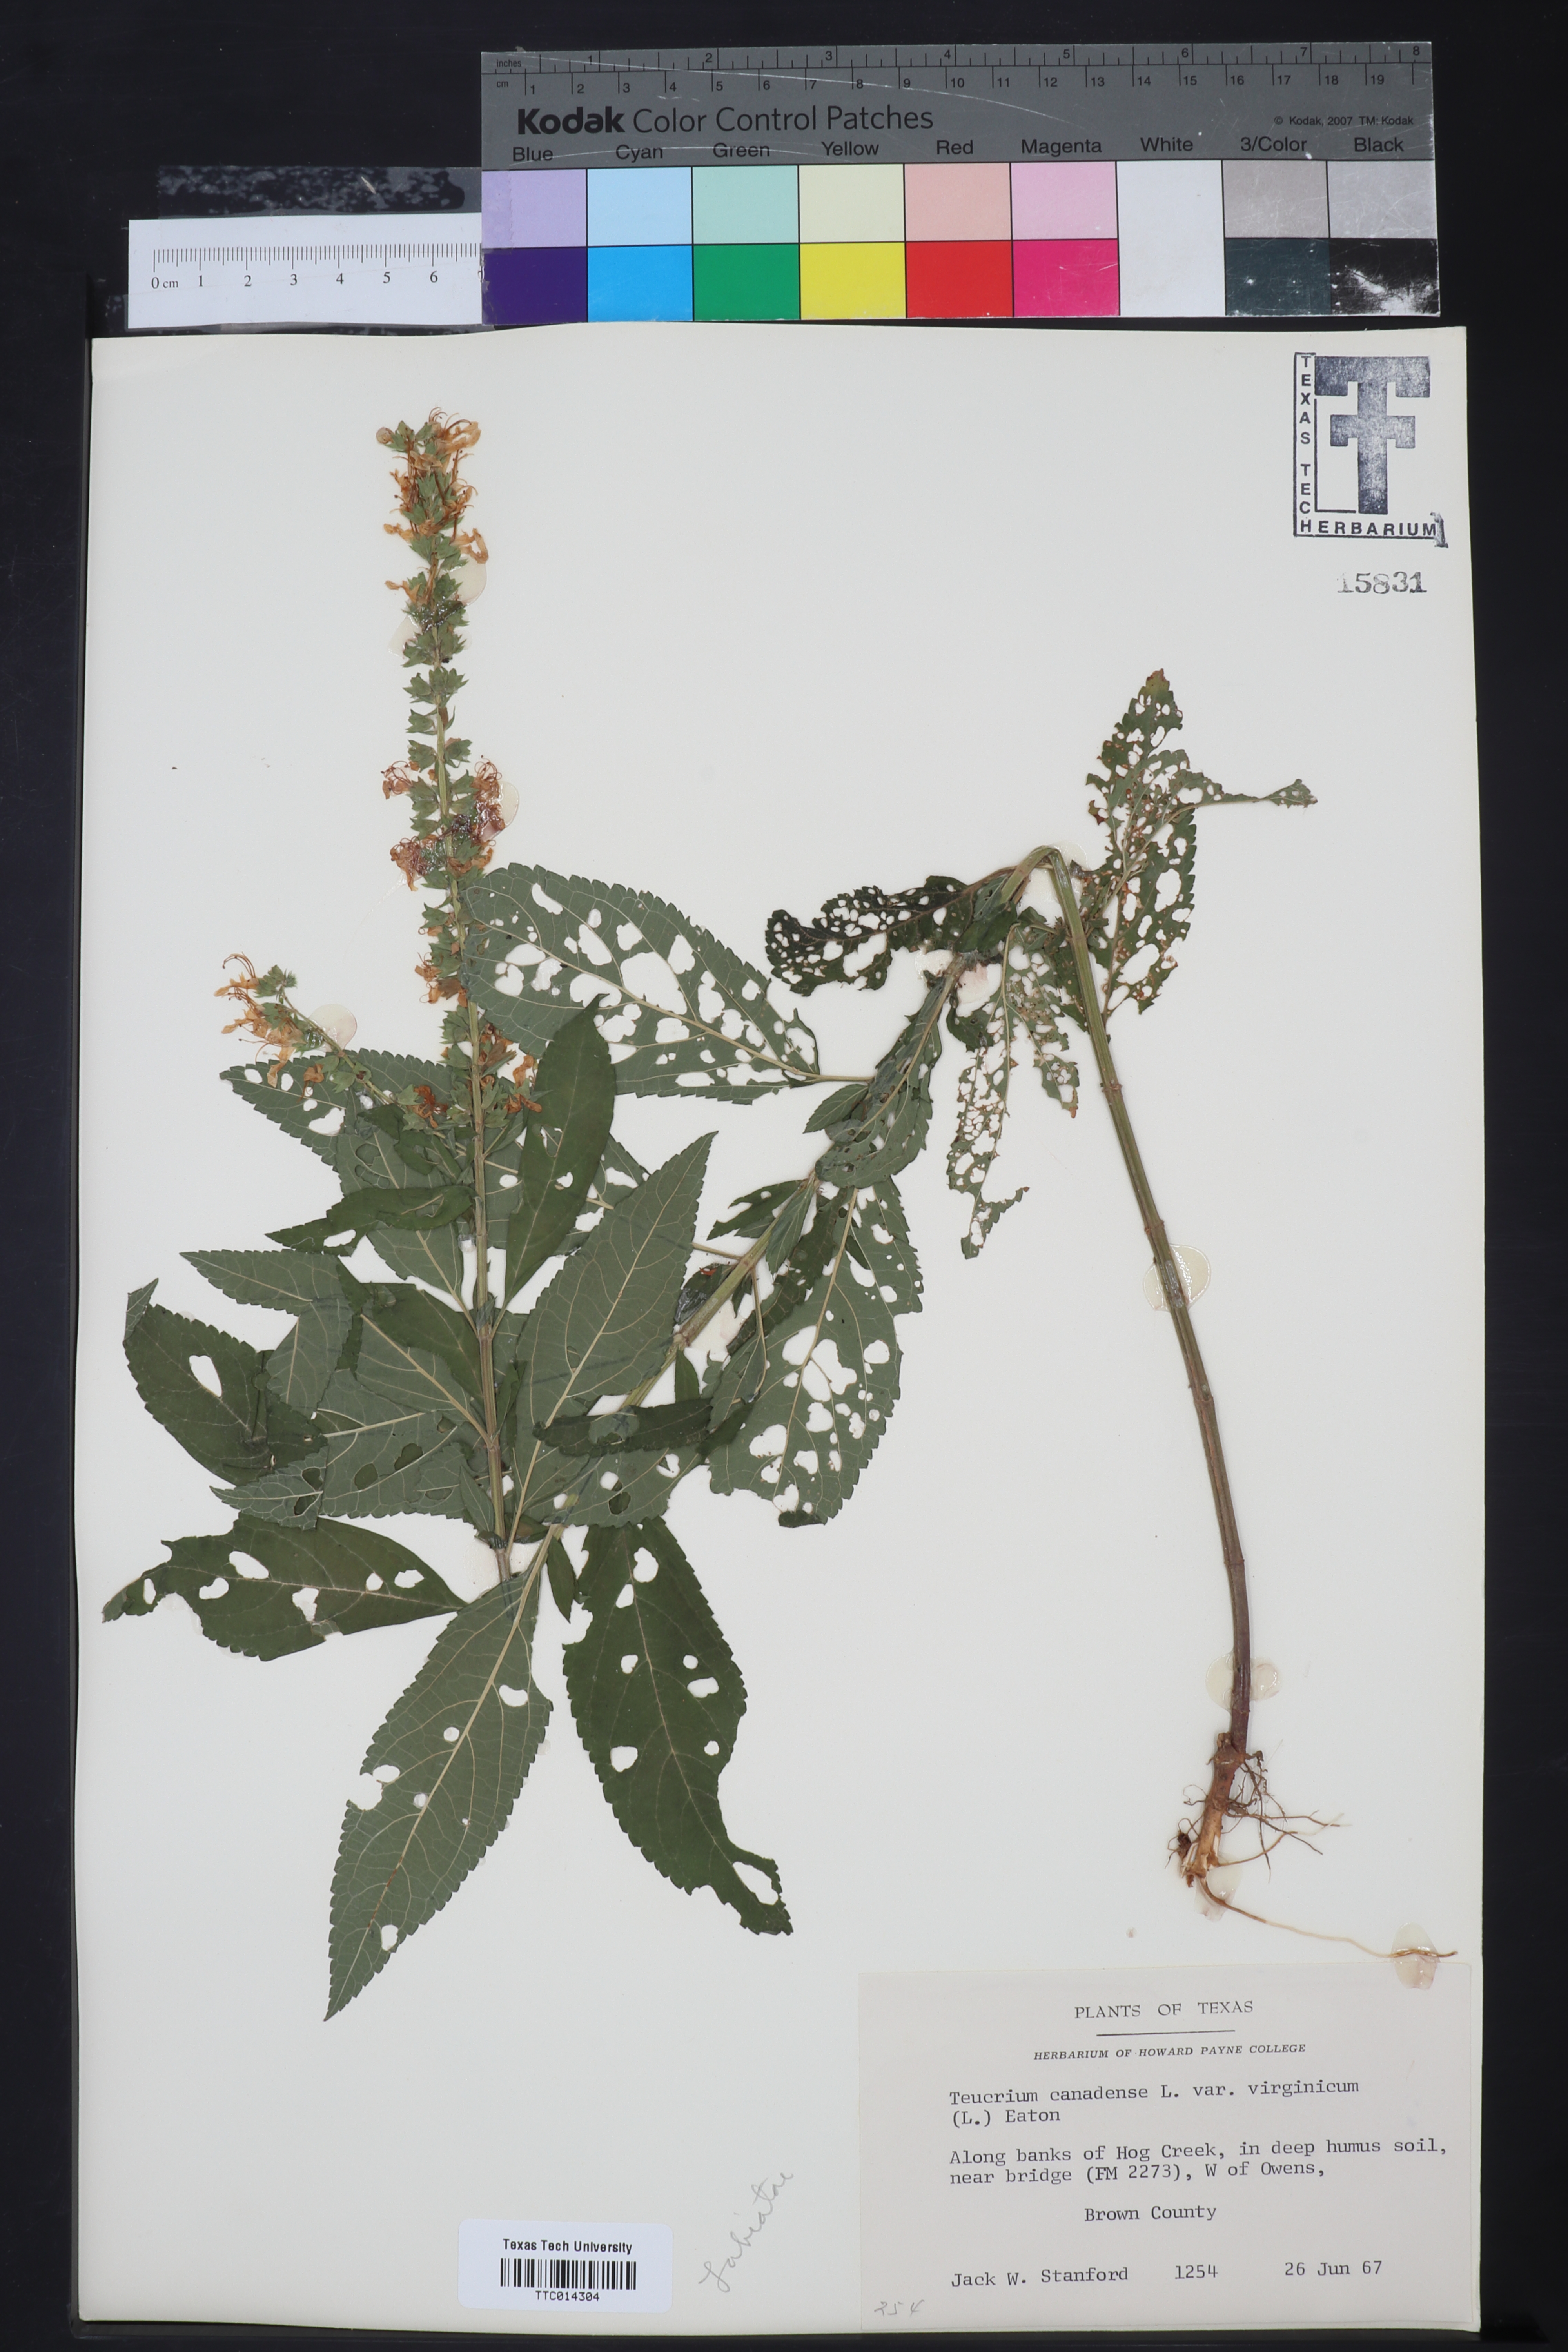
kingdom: Plantae
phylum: Tracheophyta
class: Magnoliopsida
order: Lamiales
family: Lamiaceae
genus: Teucrium
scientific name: Teucrium canadense
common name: American germander
